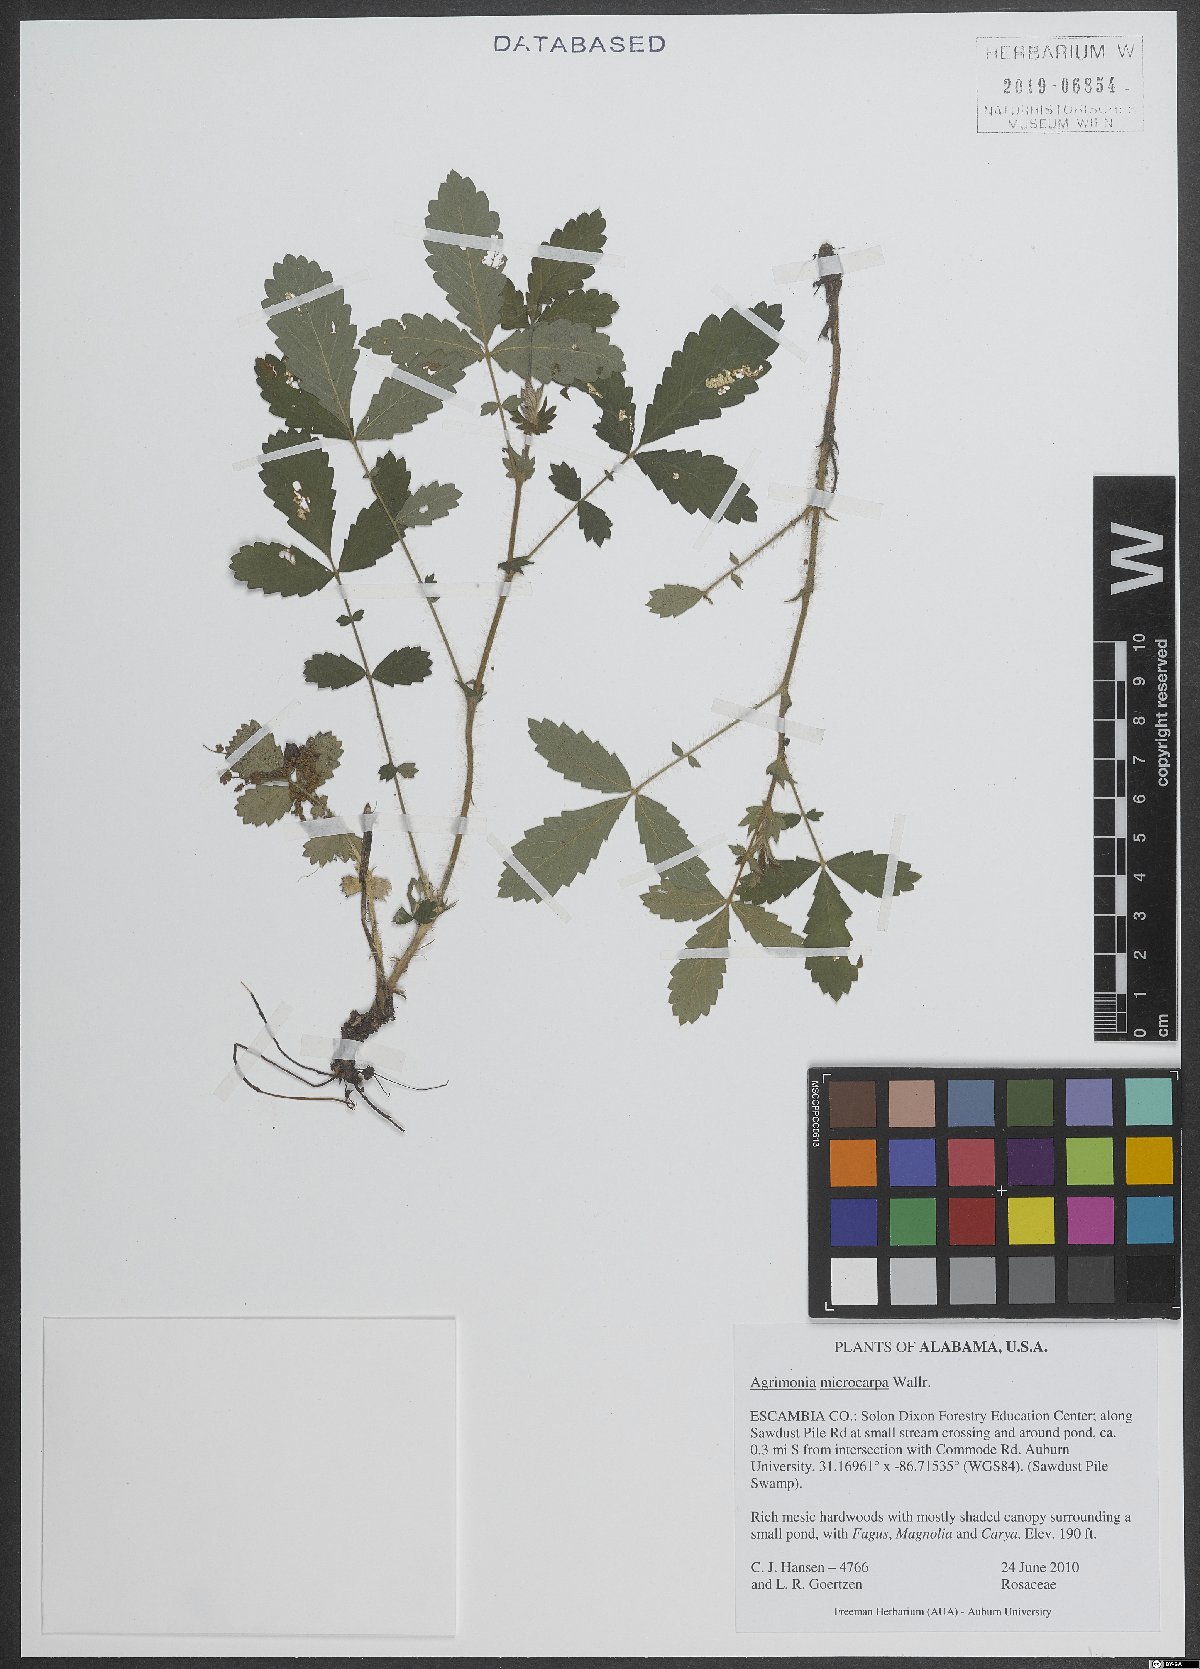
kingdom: Plantae
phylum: Tracheophyta
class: Magnoliopsida
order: Rosales
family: Rosaceae
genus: Agrimonia
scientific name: Agrimonia microcarpa
